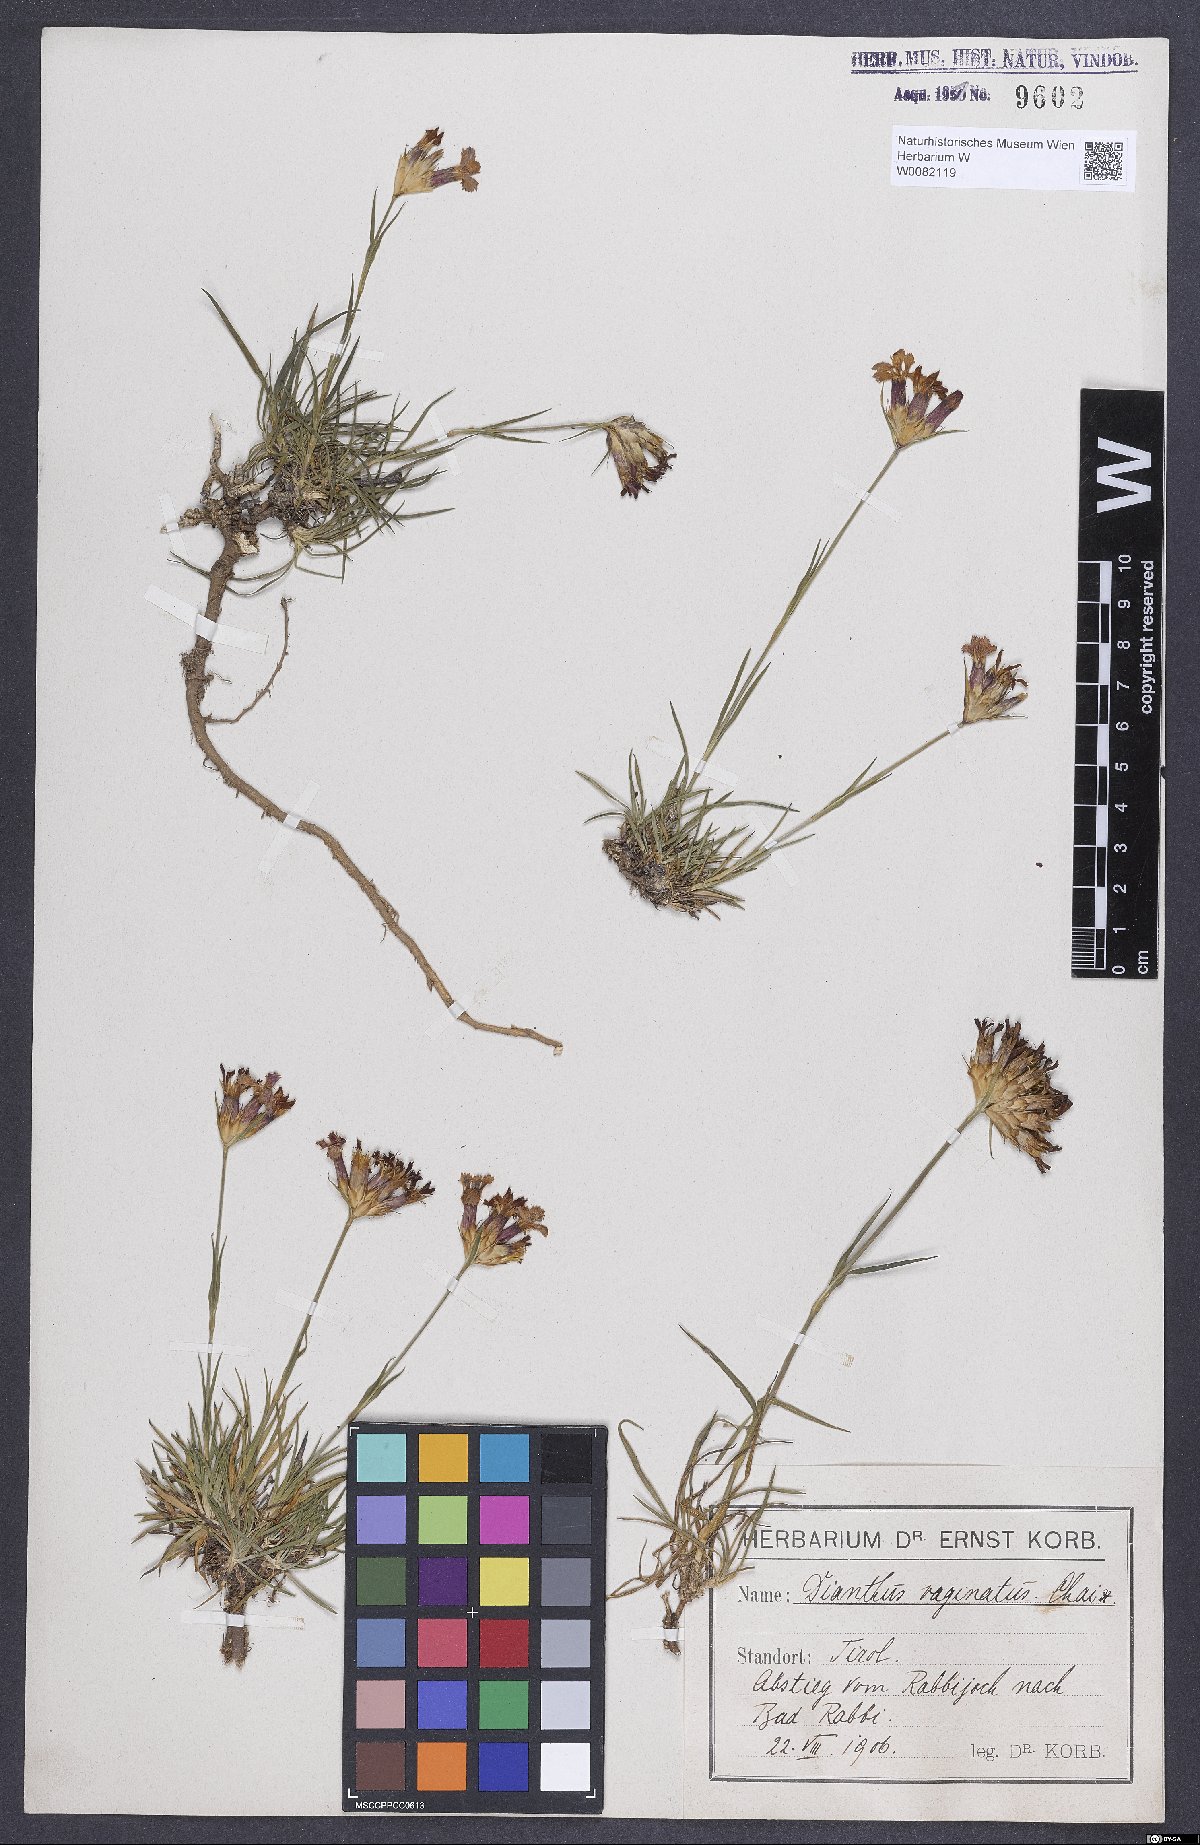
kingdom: Plantae
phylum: Tracheophyta
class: Magnoliopsida
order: Caryophyllales
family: Caryophyllaceae
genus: Dianthus
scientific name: Dianthus carthusianorum
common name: Carthusian pink
